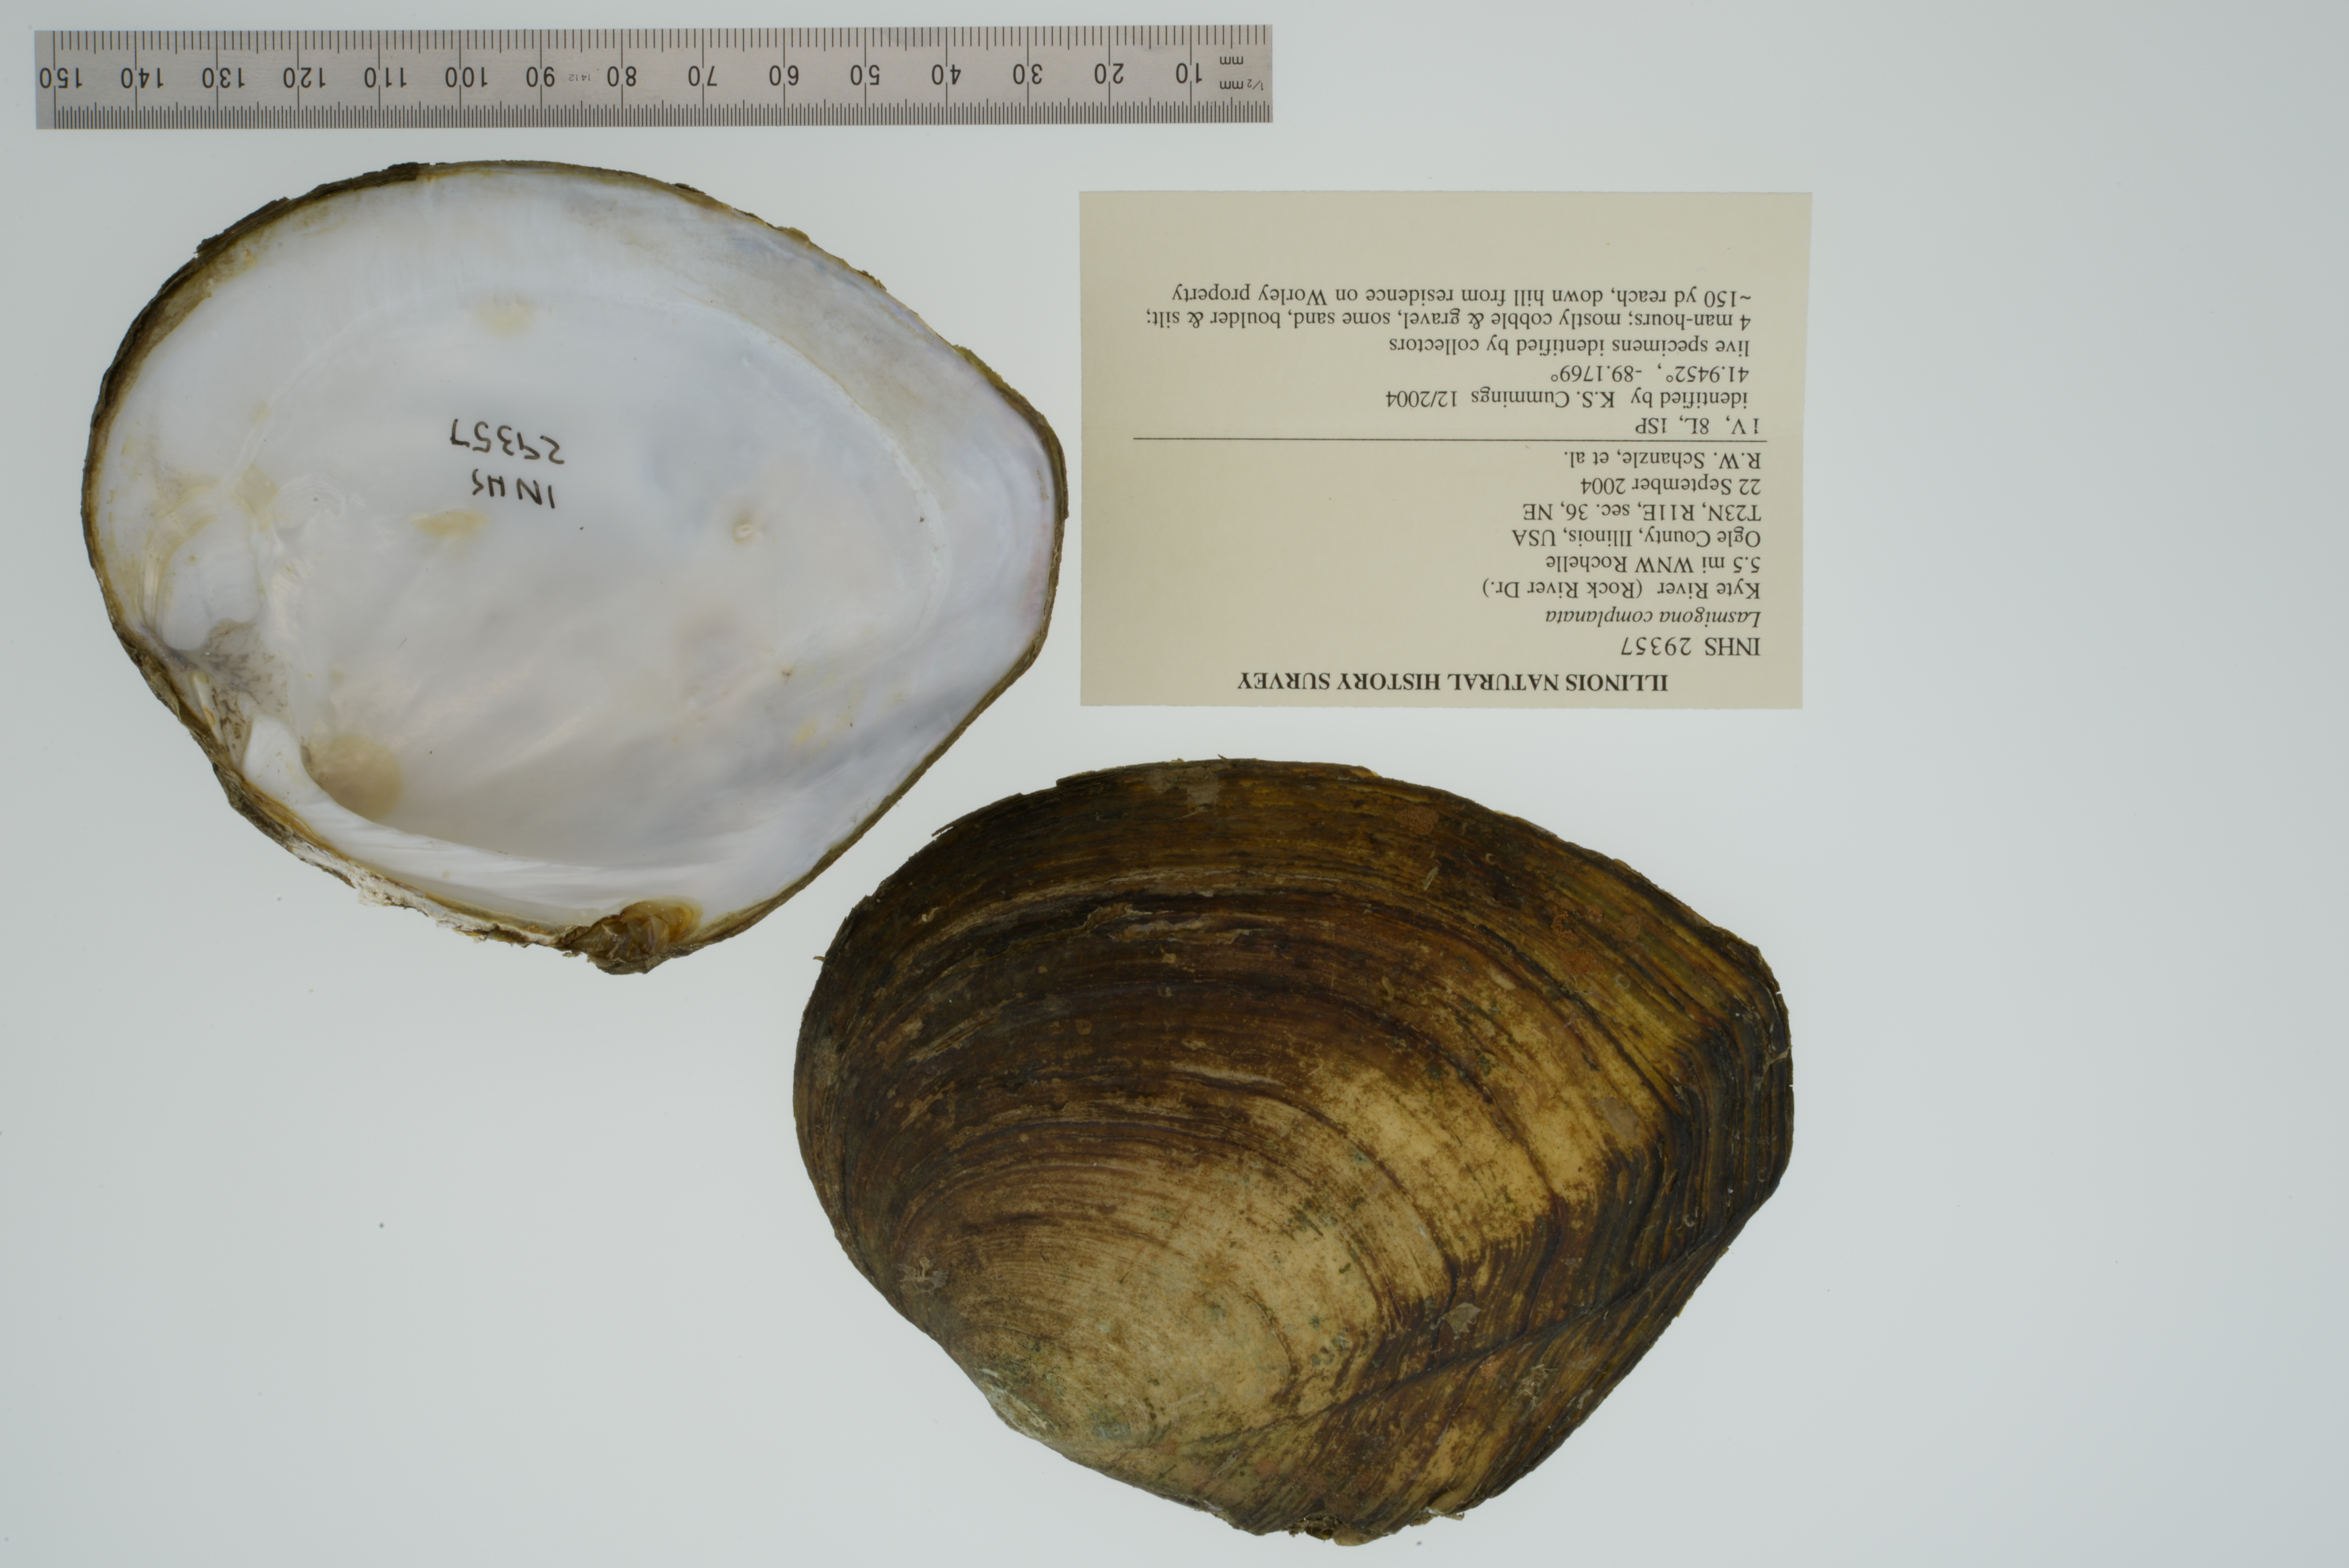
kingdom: Animalia
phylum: Mollusca
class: Bivalvia
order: Unionida
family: Unionidae
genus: Lasmigona
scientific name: Lasmigona complanata
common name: White heelsplitter
